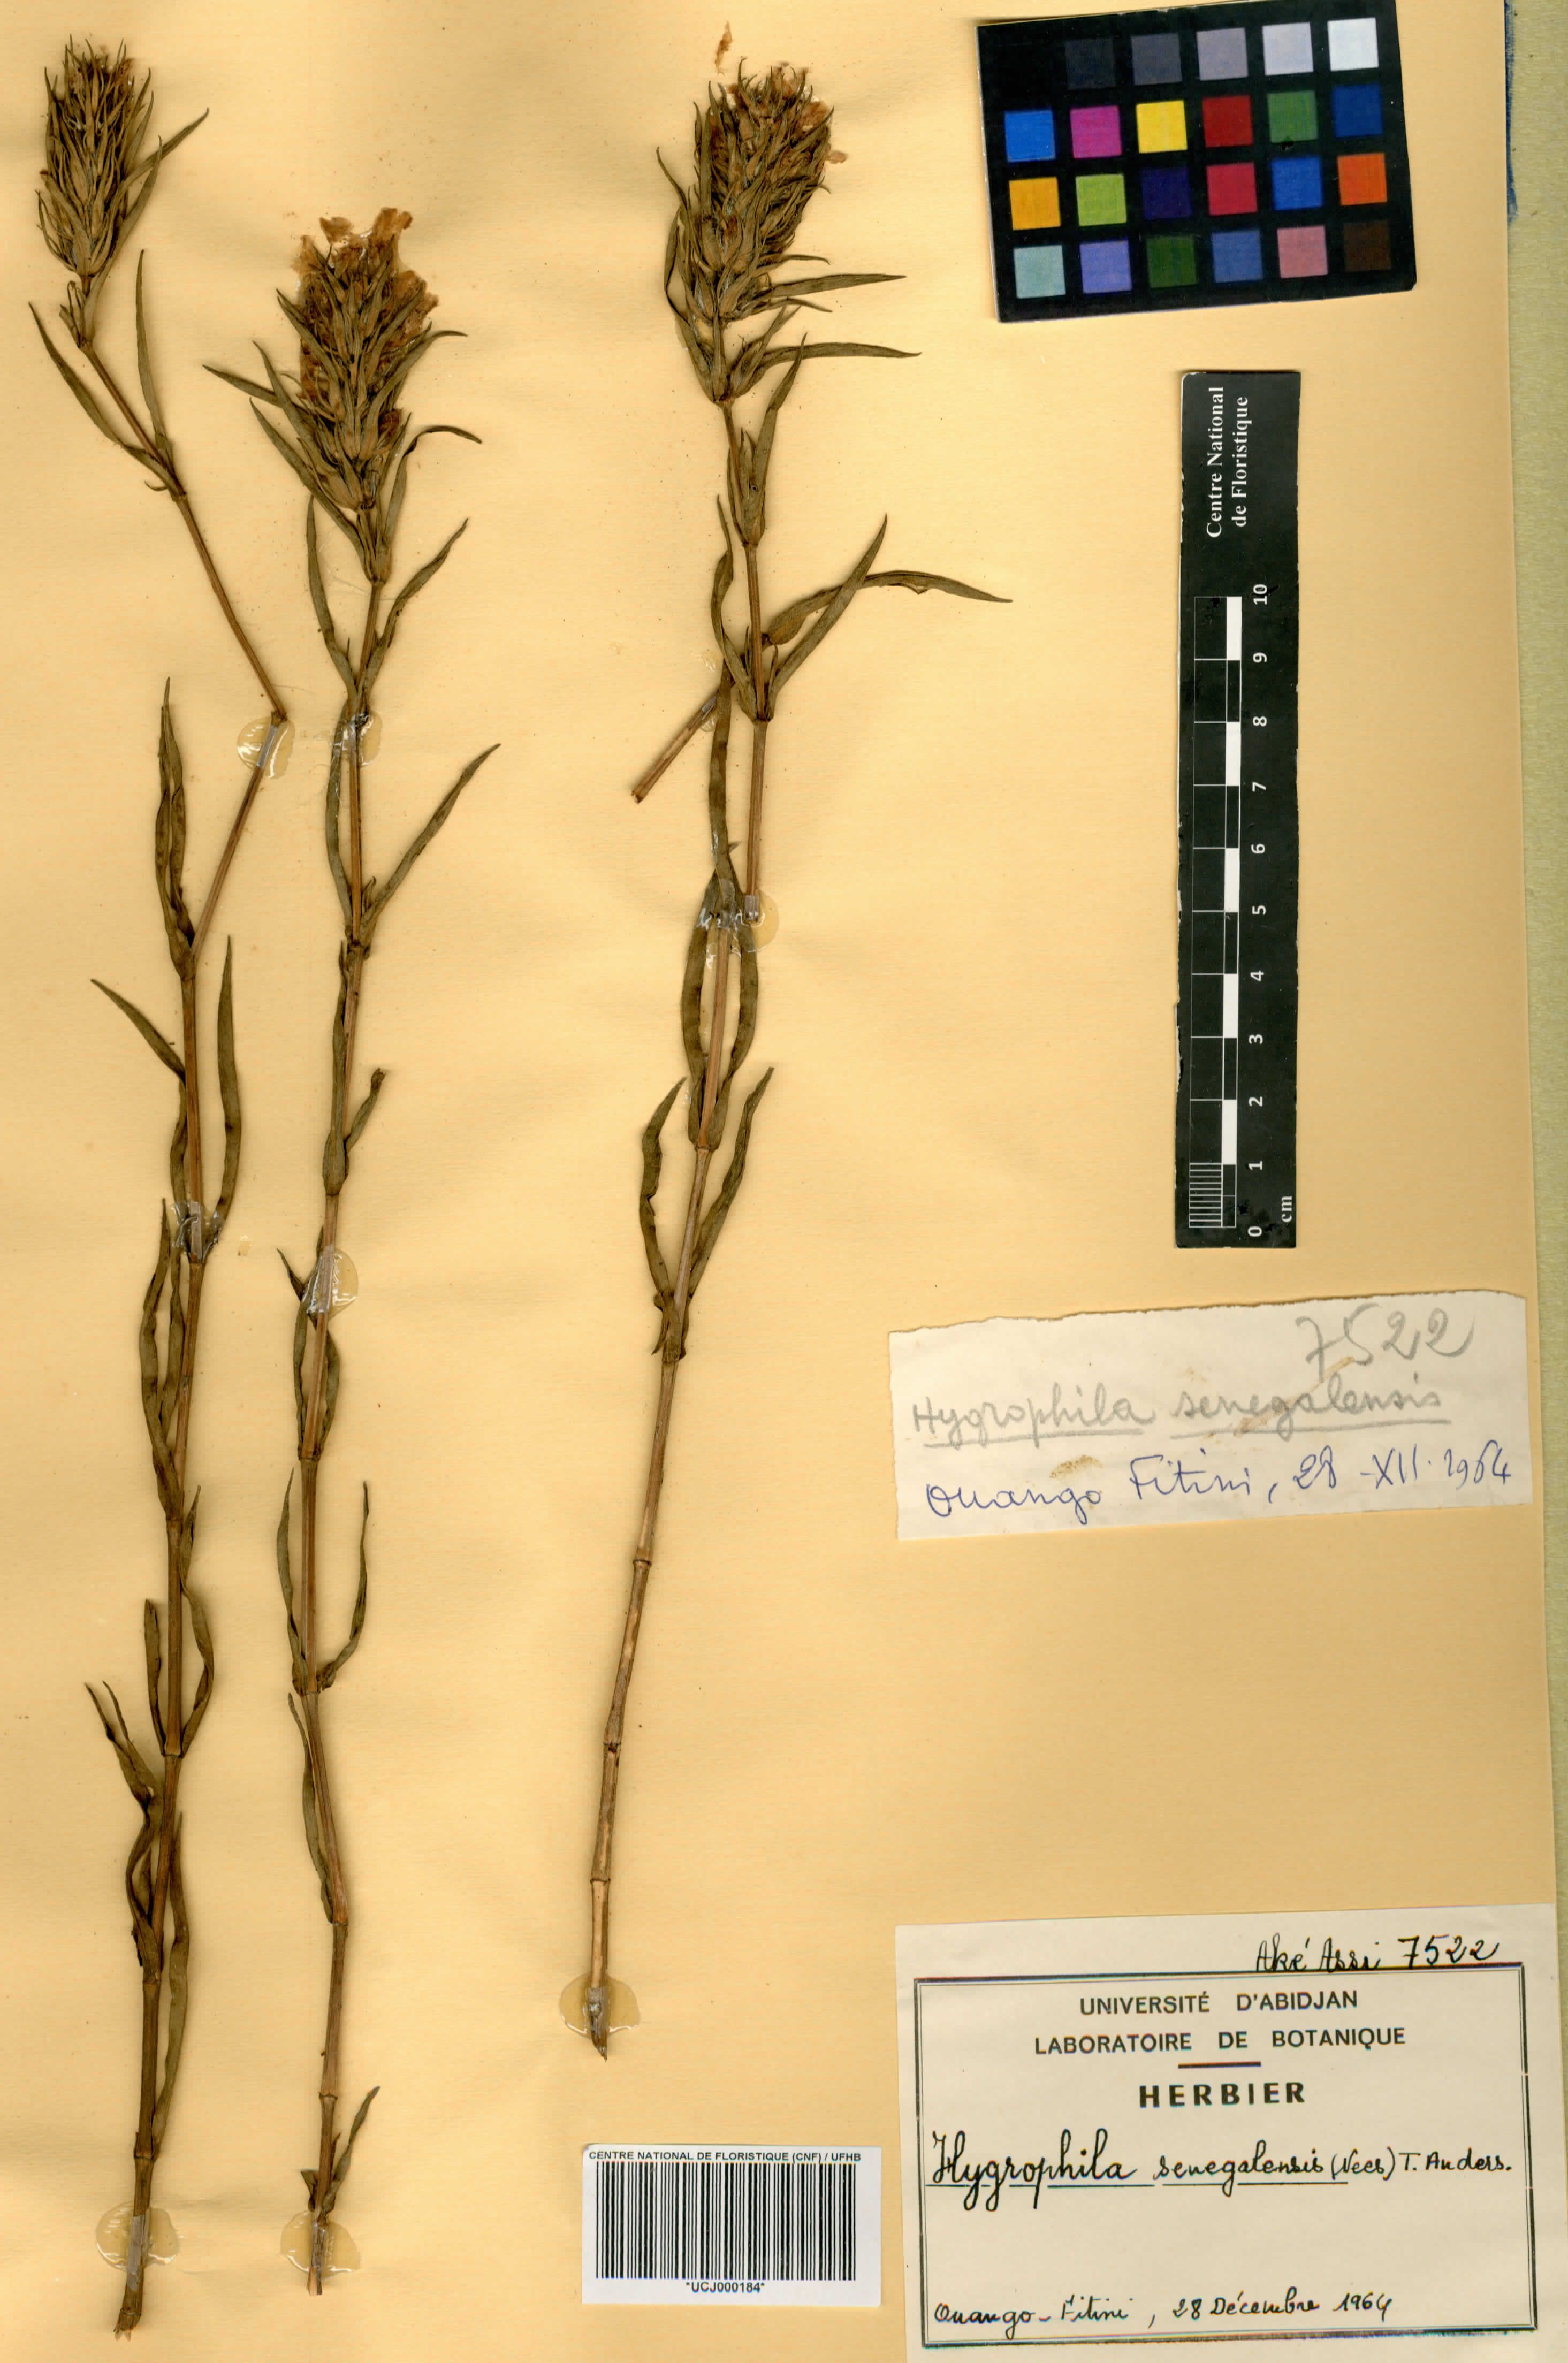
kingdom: Plantae
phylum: Tracheophyta
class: Magnoliopsida
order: Lamiales
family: Acanthaceae
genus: Hygrophila
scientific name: Hygrophila micrantha
